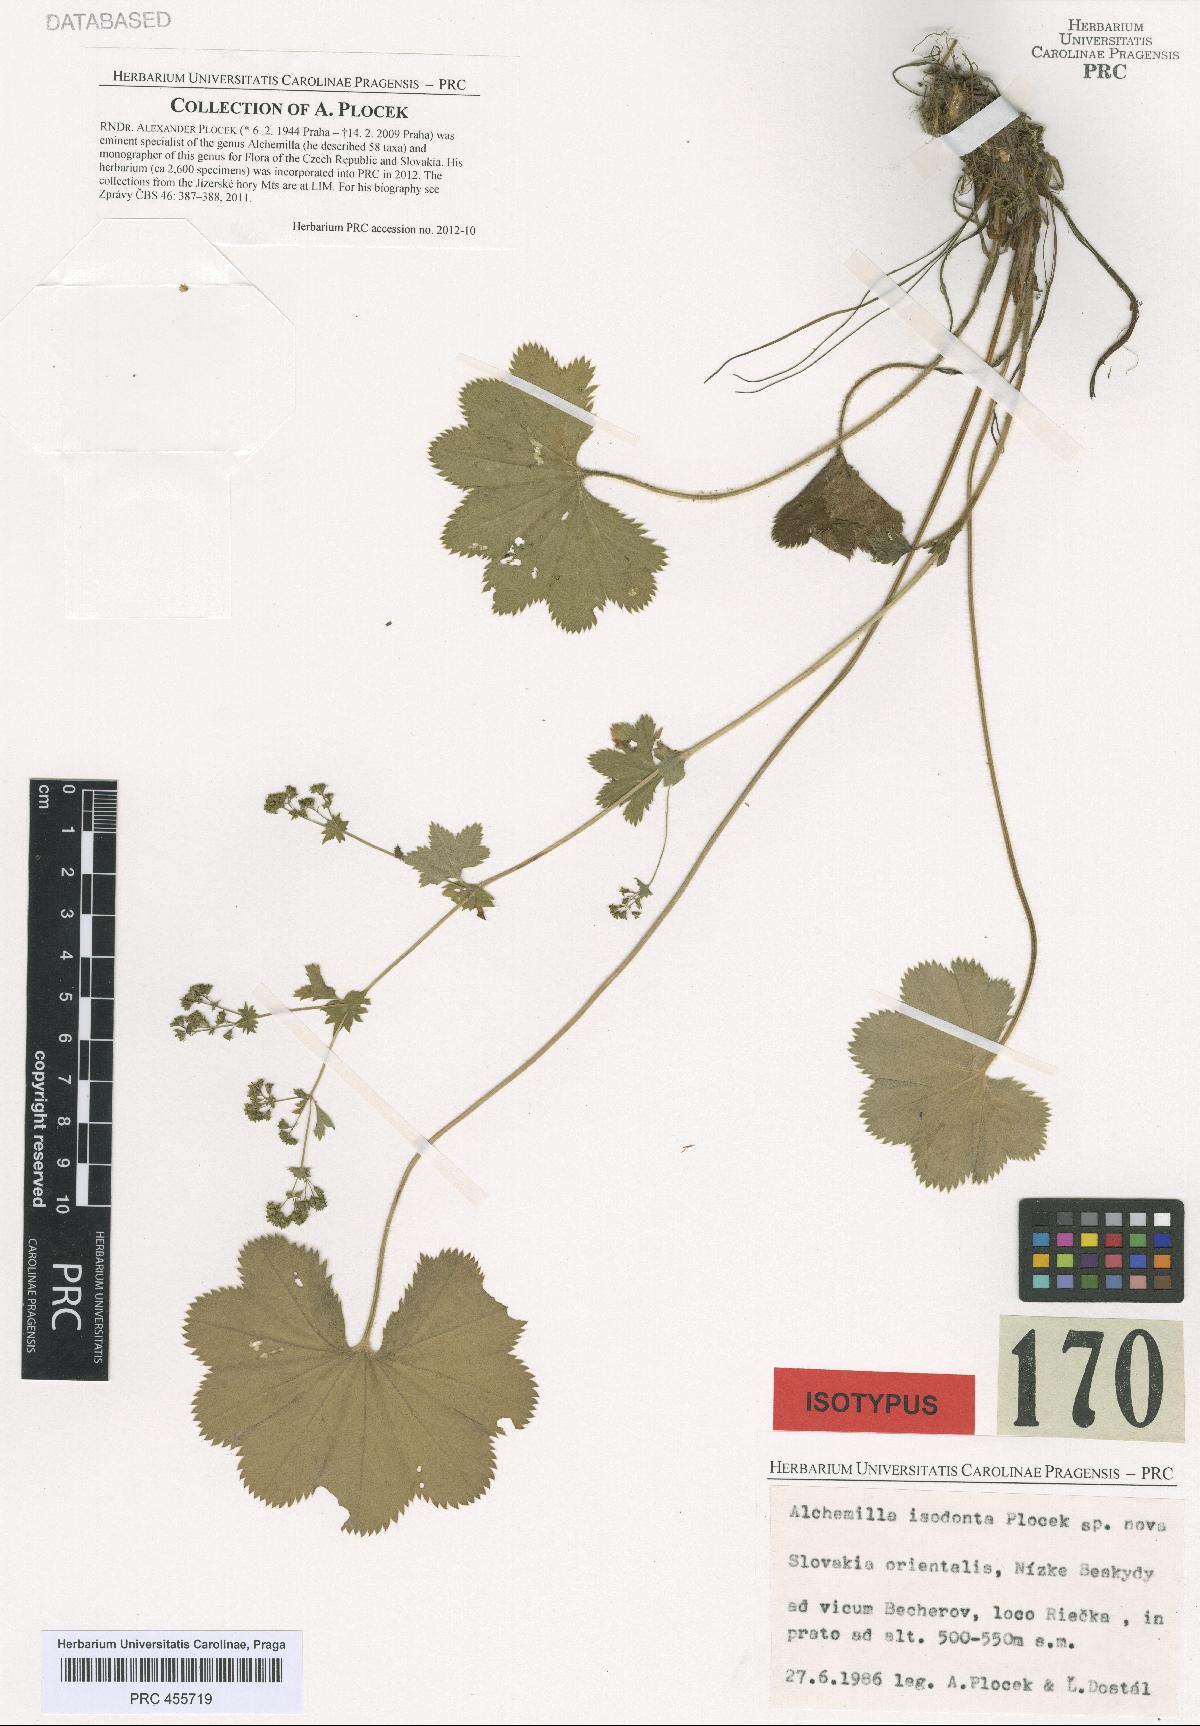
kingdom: Plantae
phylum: Tracheophyta
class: Magnoliopsida
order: Rosales
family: Rosaceae
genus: Alchemilla
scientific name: Alchemilla isodonta
